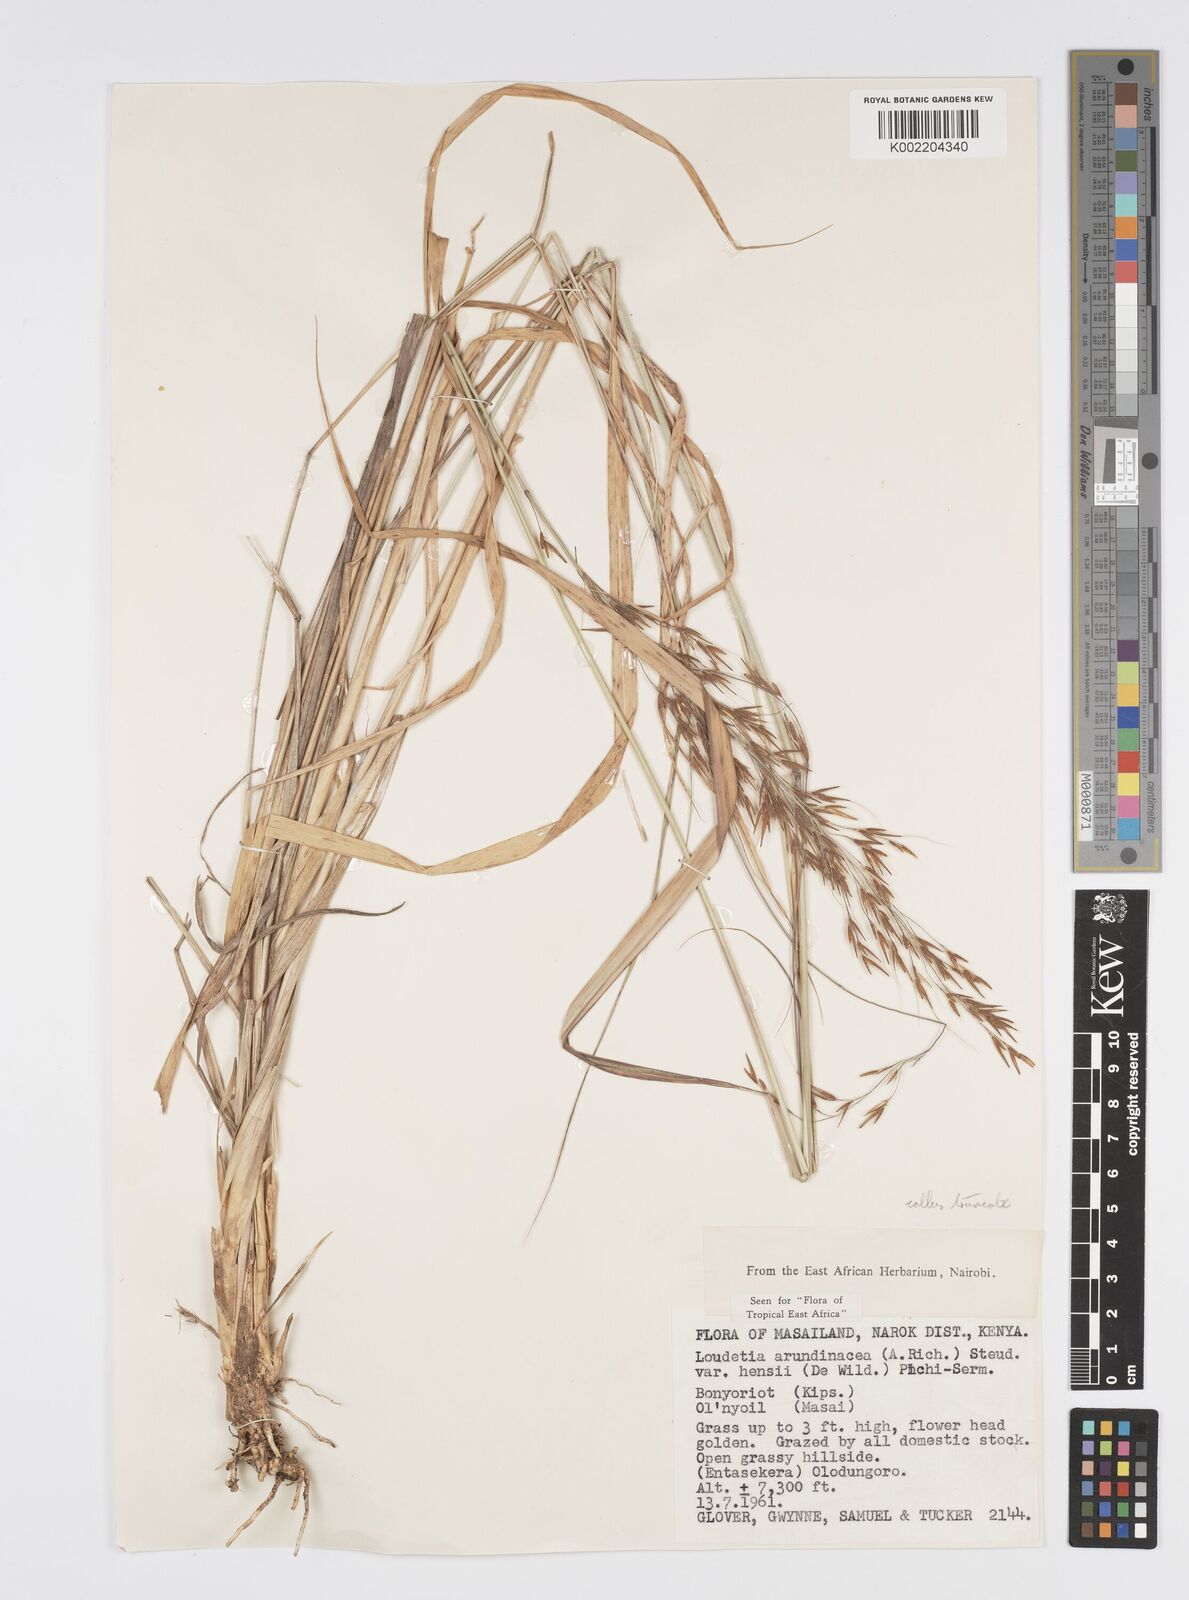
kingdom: Plantae
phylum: Tracheophyta
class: Liliopsida
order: Poales
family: Poaceae
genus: Loudetia
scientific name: Loudetia arundinacea
